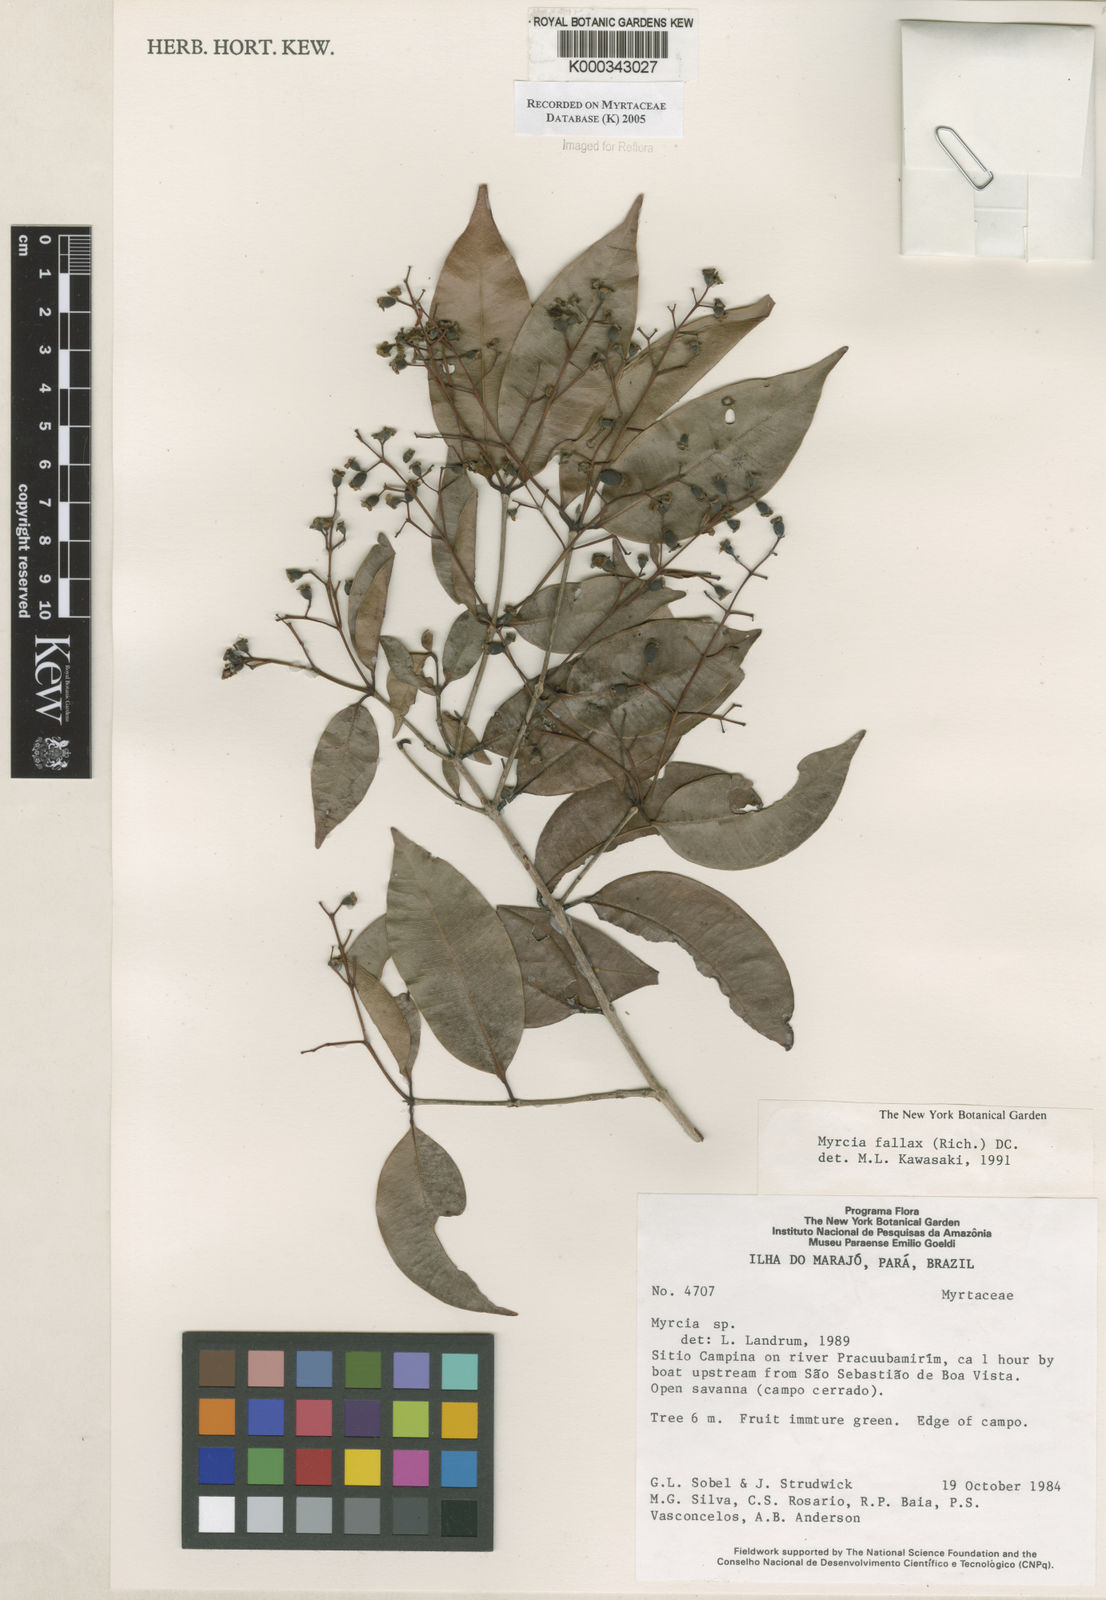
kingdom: Plantae
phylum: Tracheophyta
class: Magnoliopsida
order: Myrtales
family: Myrtaceae
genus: Myrcia
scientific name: Myrcia splendens
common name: Surinam cherry
